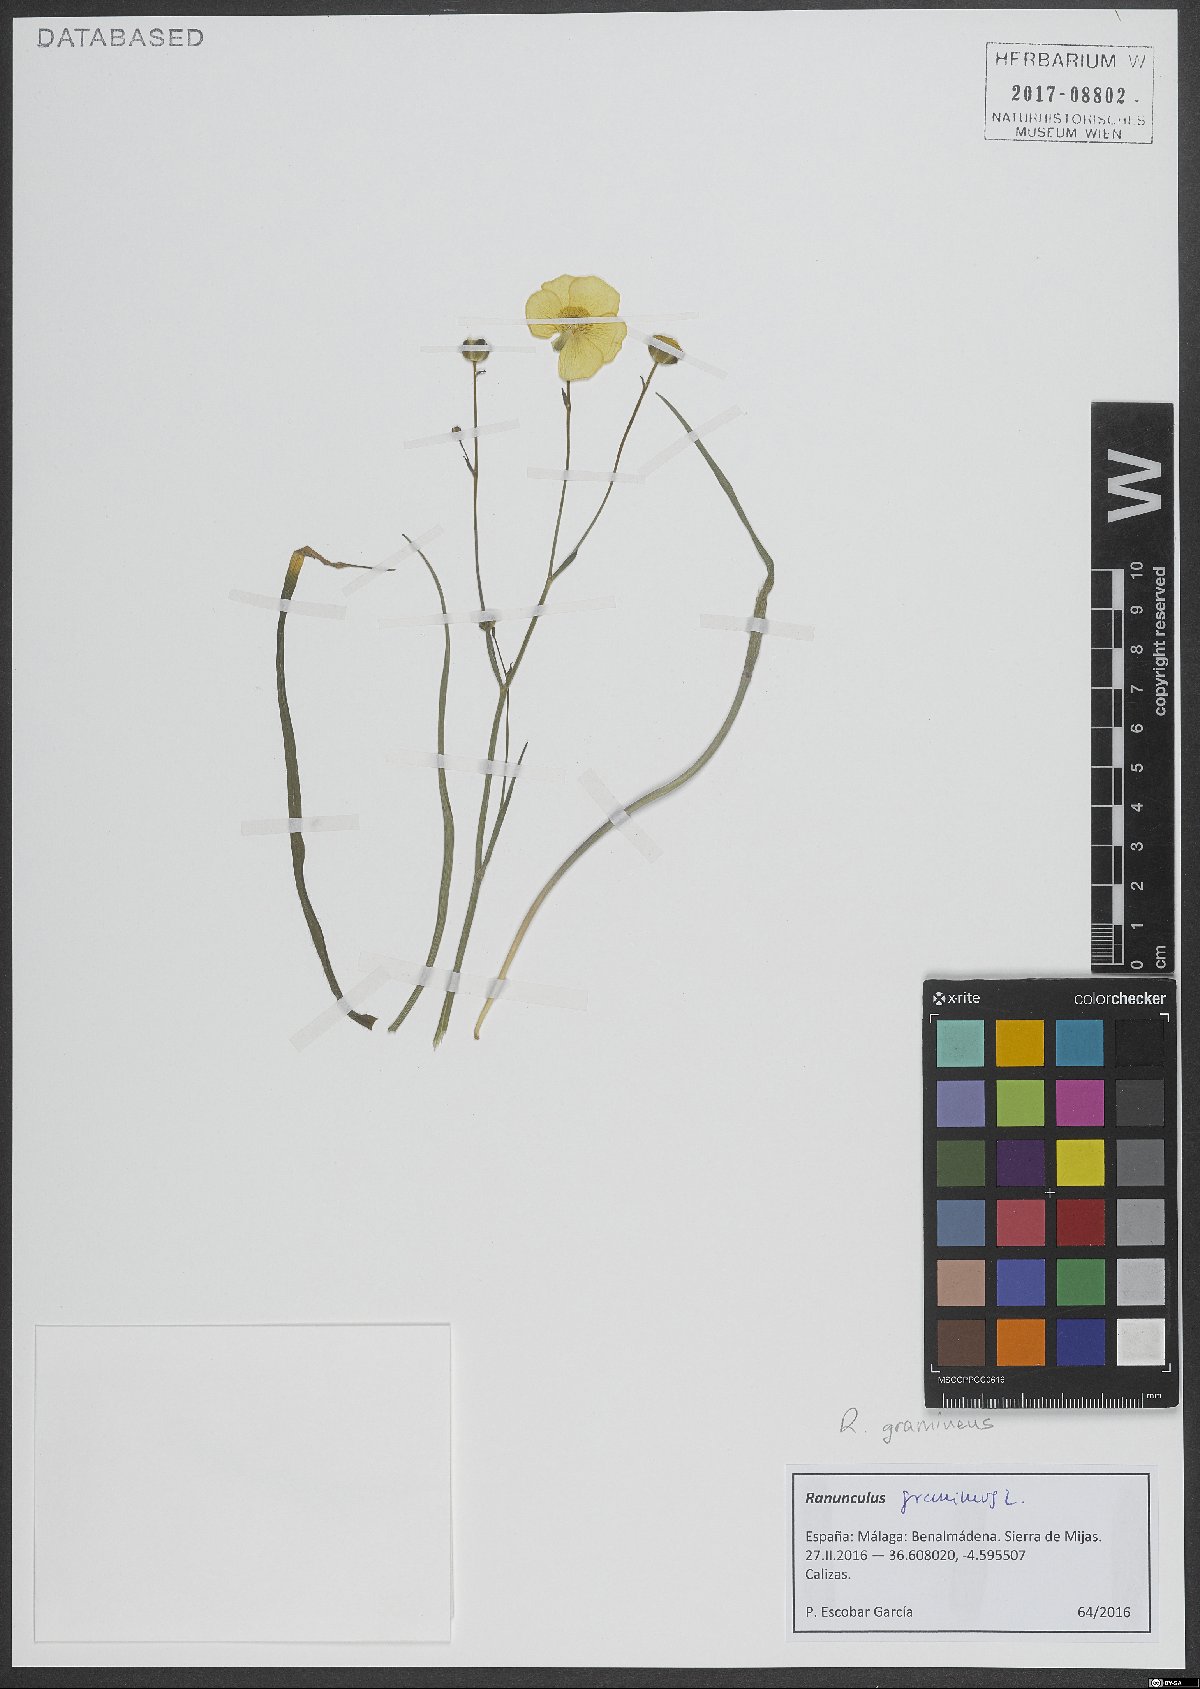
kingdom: Plantae
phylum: Tracheophyta
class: Magnoliopsida
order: Ranunculales
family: Ranunculaceae
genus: Ranunculus
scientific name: Ranunculus gramineus
